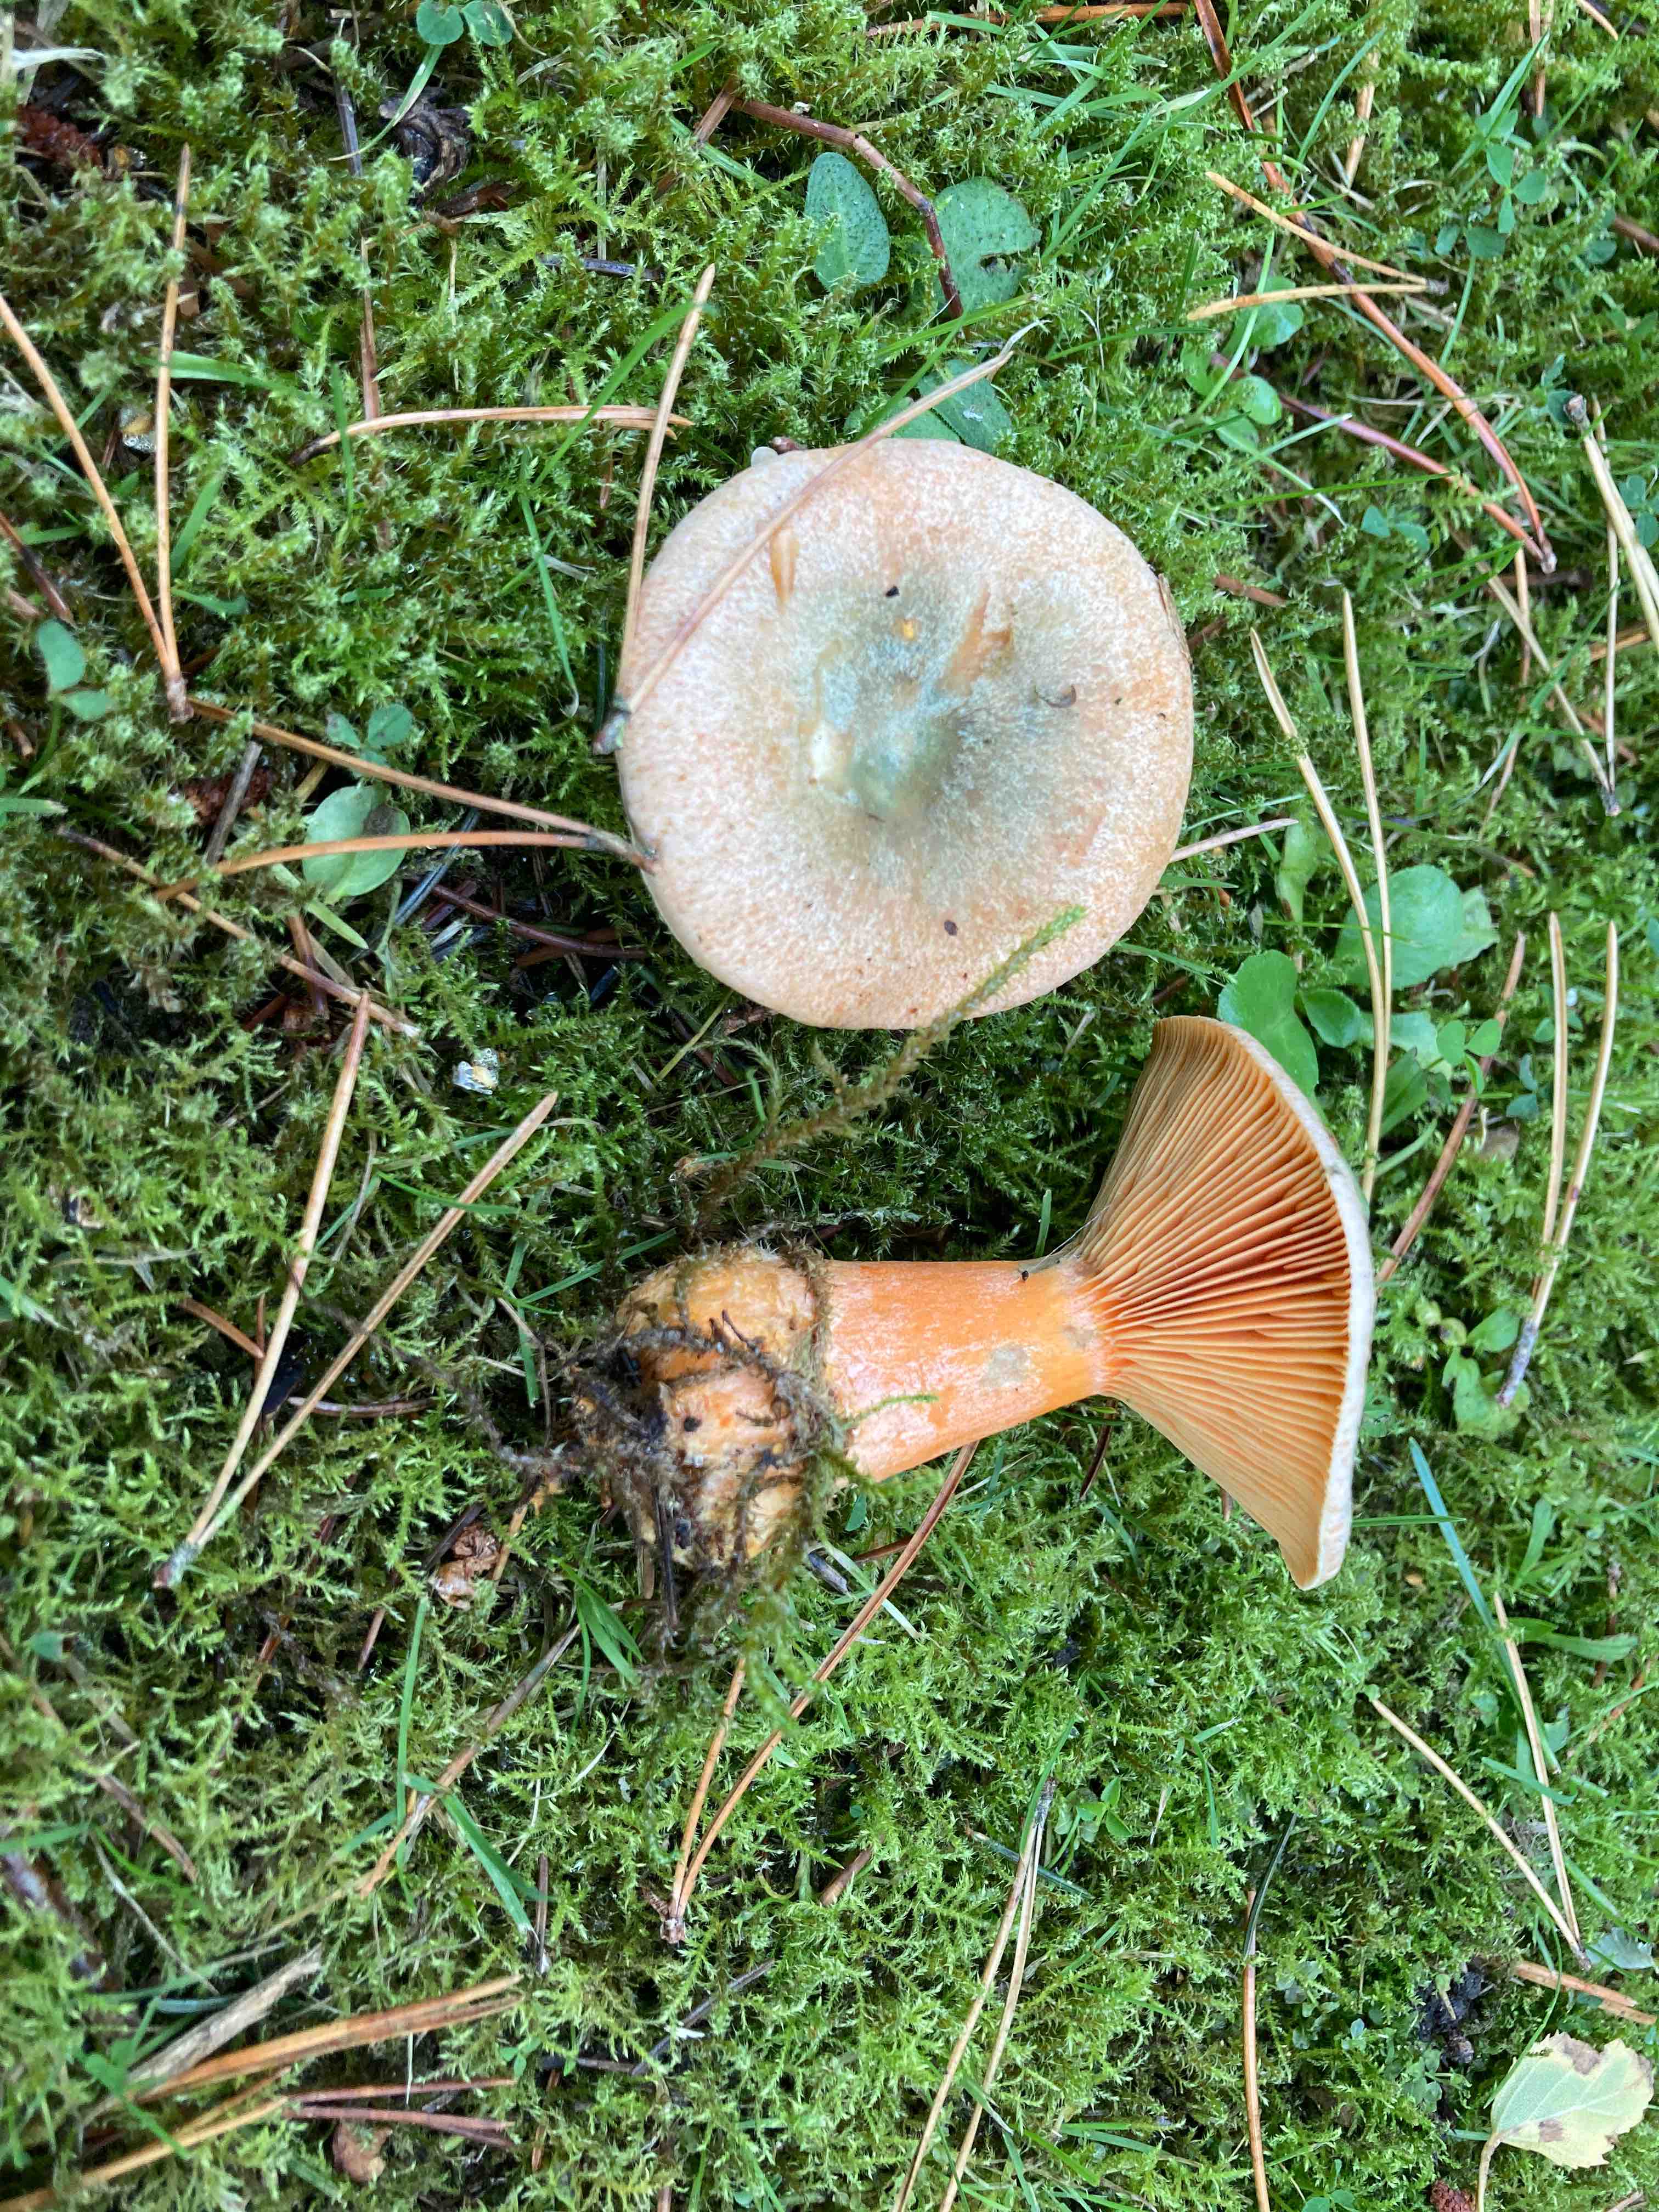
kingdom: Fungi
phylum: Basidiomycota
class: Agaricomycetes
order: Russulales
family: Russulaceae
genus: Lactarius
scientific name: Lactarius deterrimus
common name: gran-mælkehat
